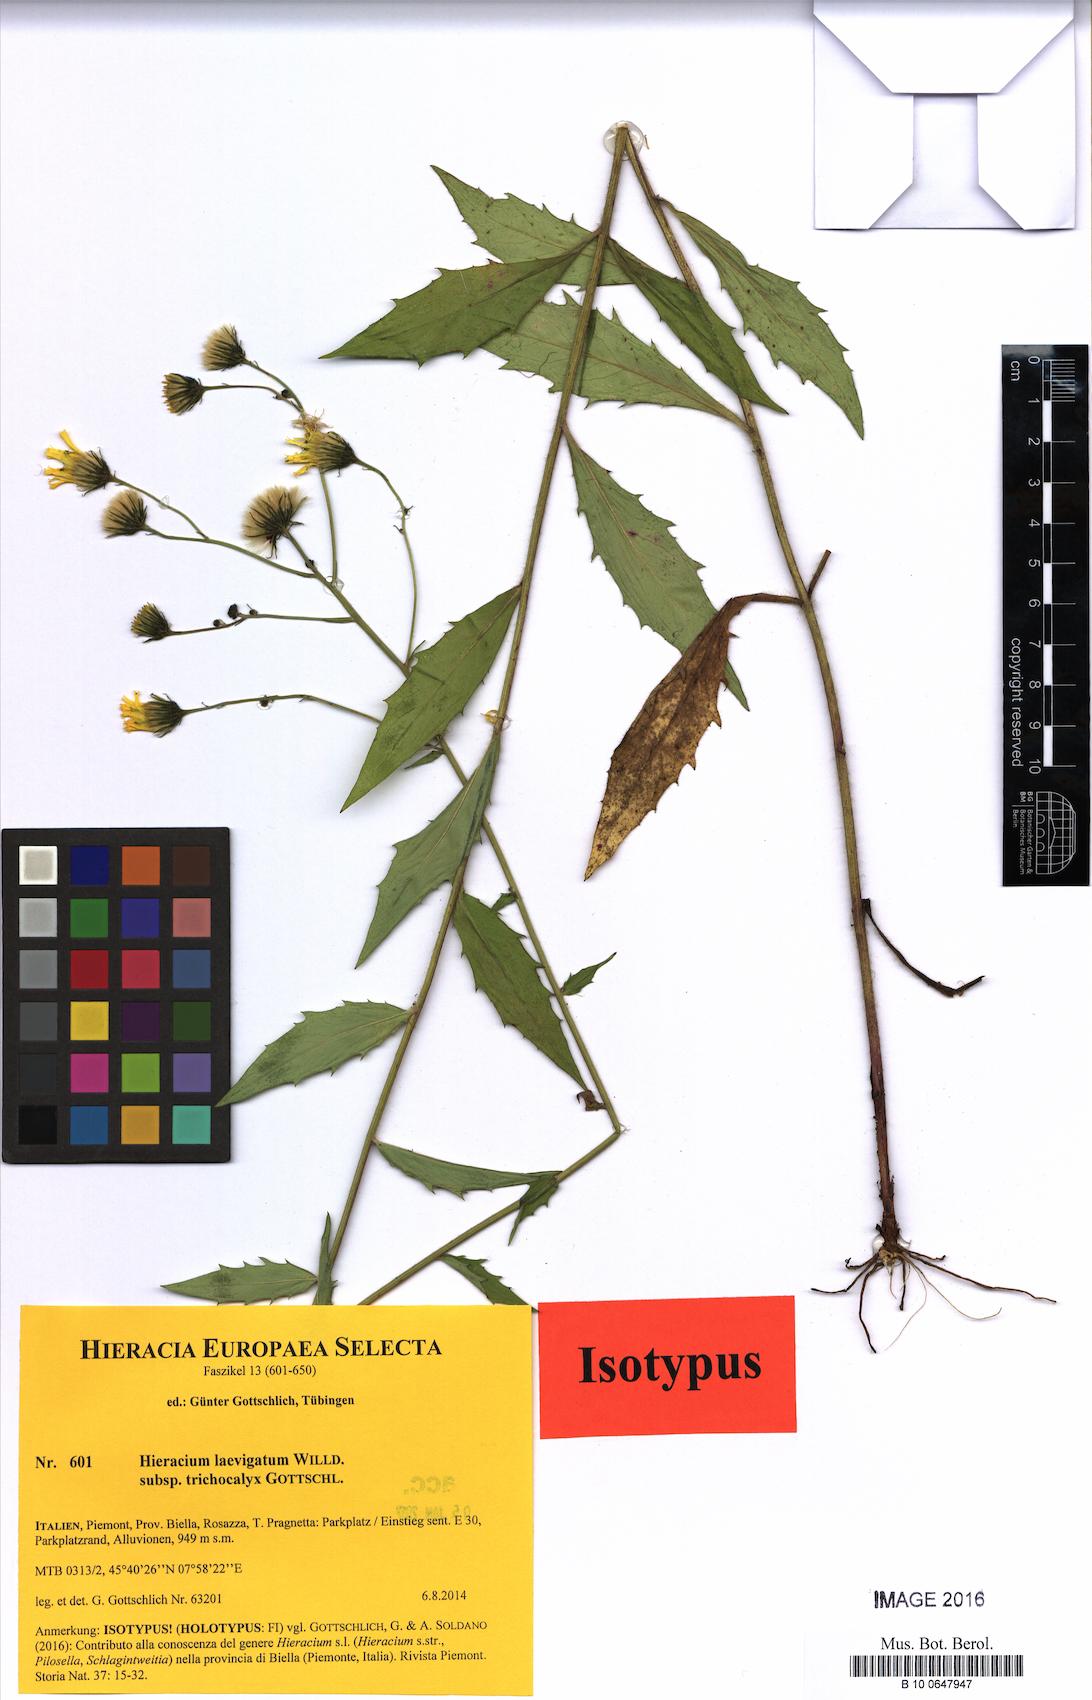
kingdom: Plantae
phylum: Tracheophyta
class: Magnoliopsida
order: Asterales
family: Asteraceae
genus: Hieracium
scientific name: Hieracium laevigatum
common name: Smooth hawkweed
